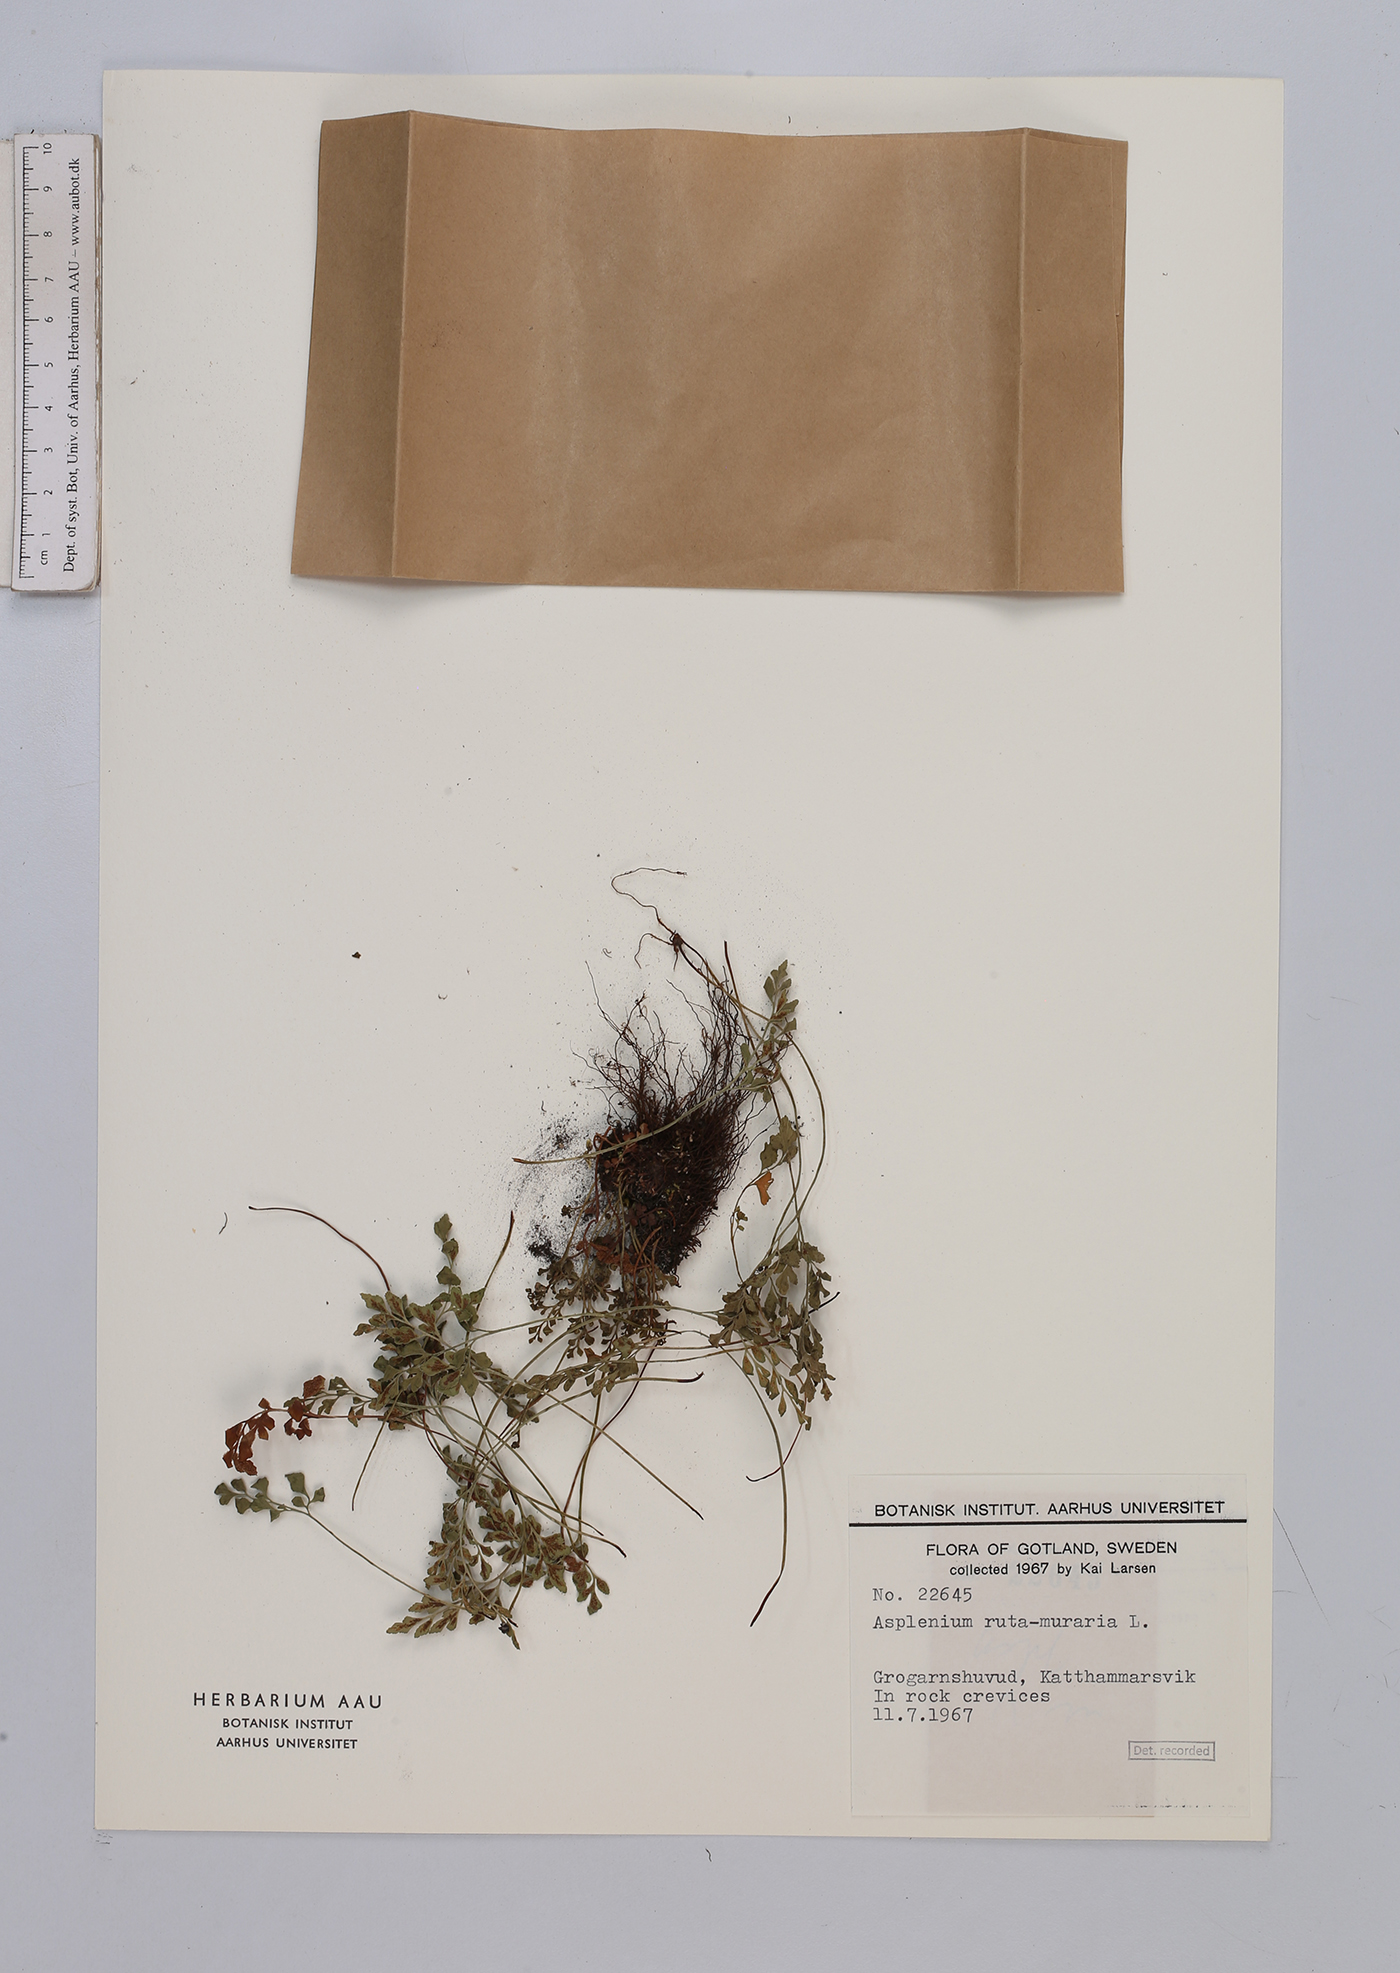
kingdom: Plantae
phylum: Tracheophyta
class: Polypodiopsida
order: Polypodiales
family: Aspleniaceae
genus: Asplenium
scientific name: Asplenium ruta-muraria
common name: Wall-rue
